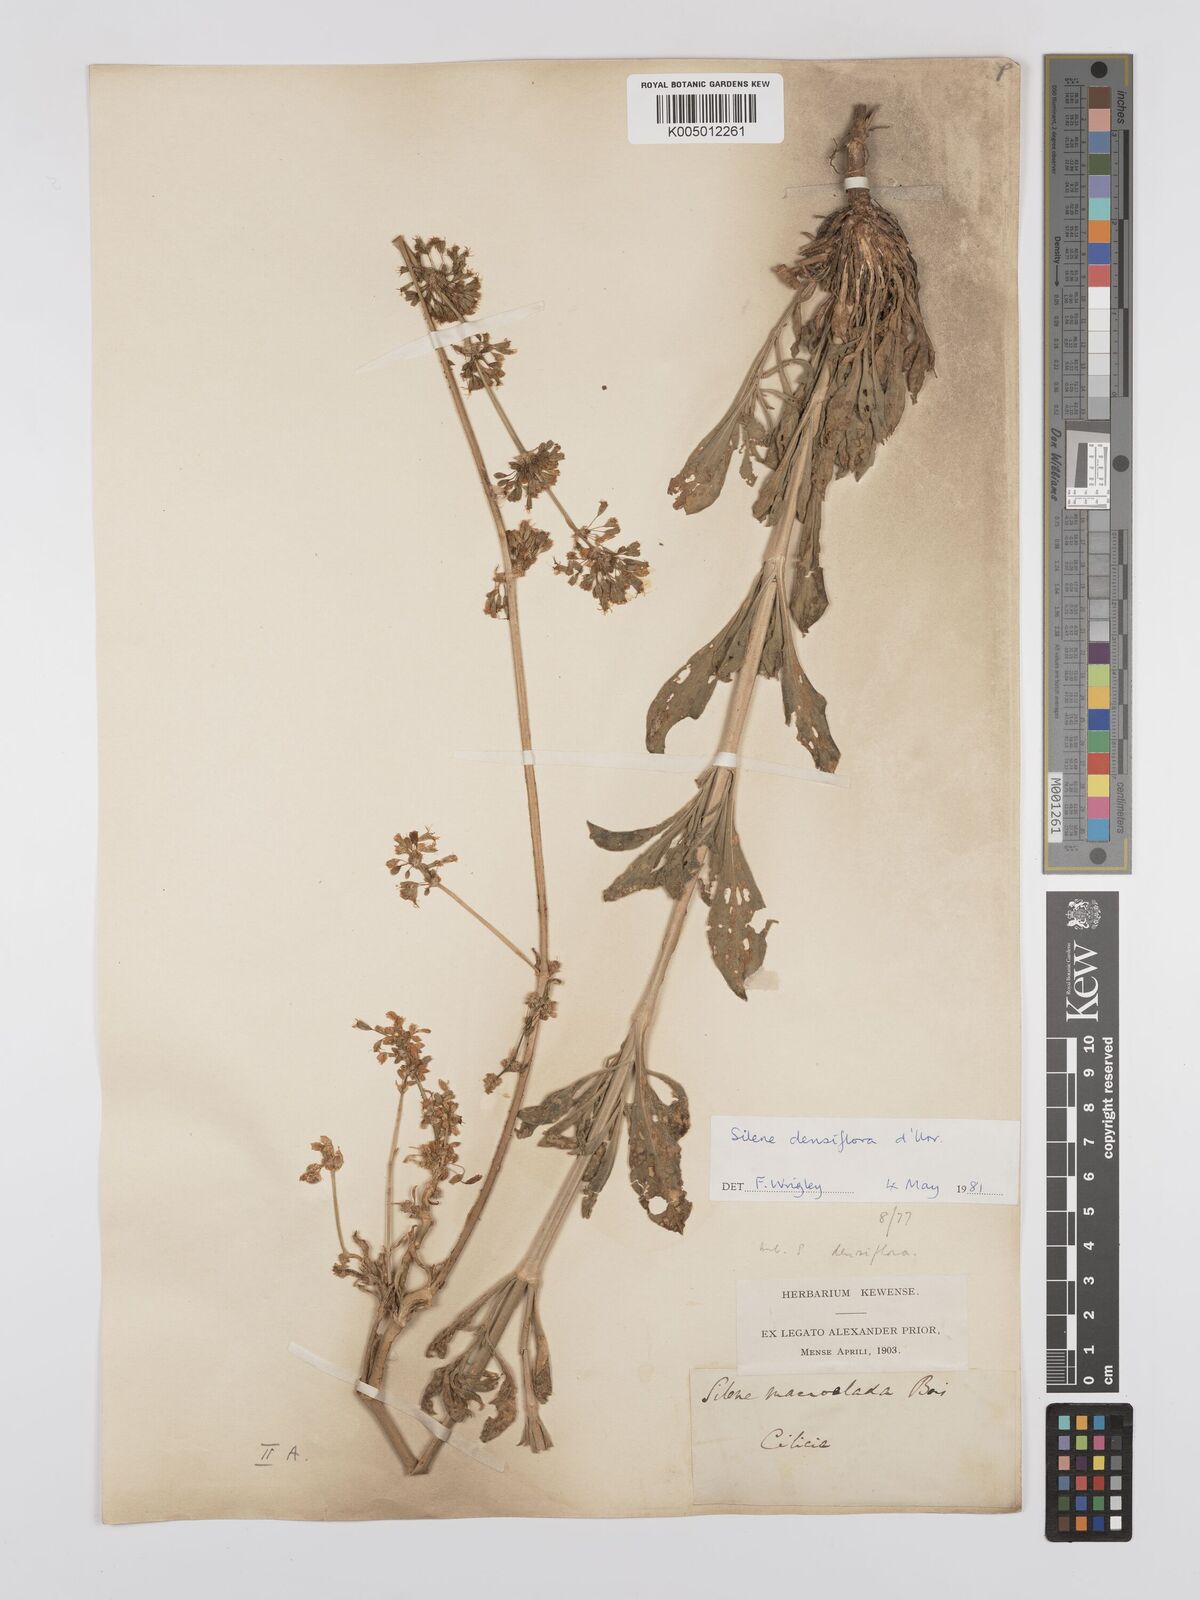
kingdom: Plantae
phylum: Tracheophyta
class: Magnoliopsida
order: Caryophyllales
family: Caryophyllaceae
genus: Silene
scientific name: Silene densiflora
